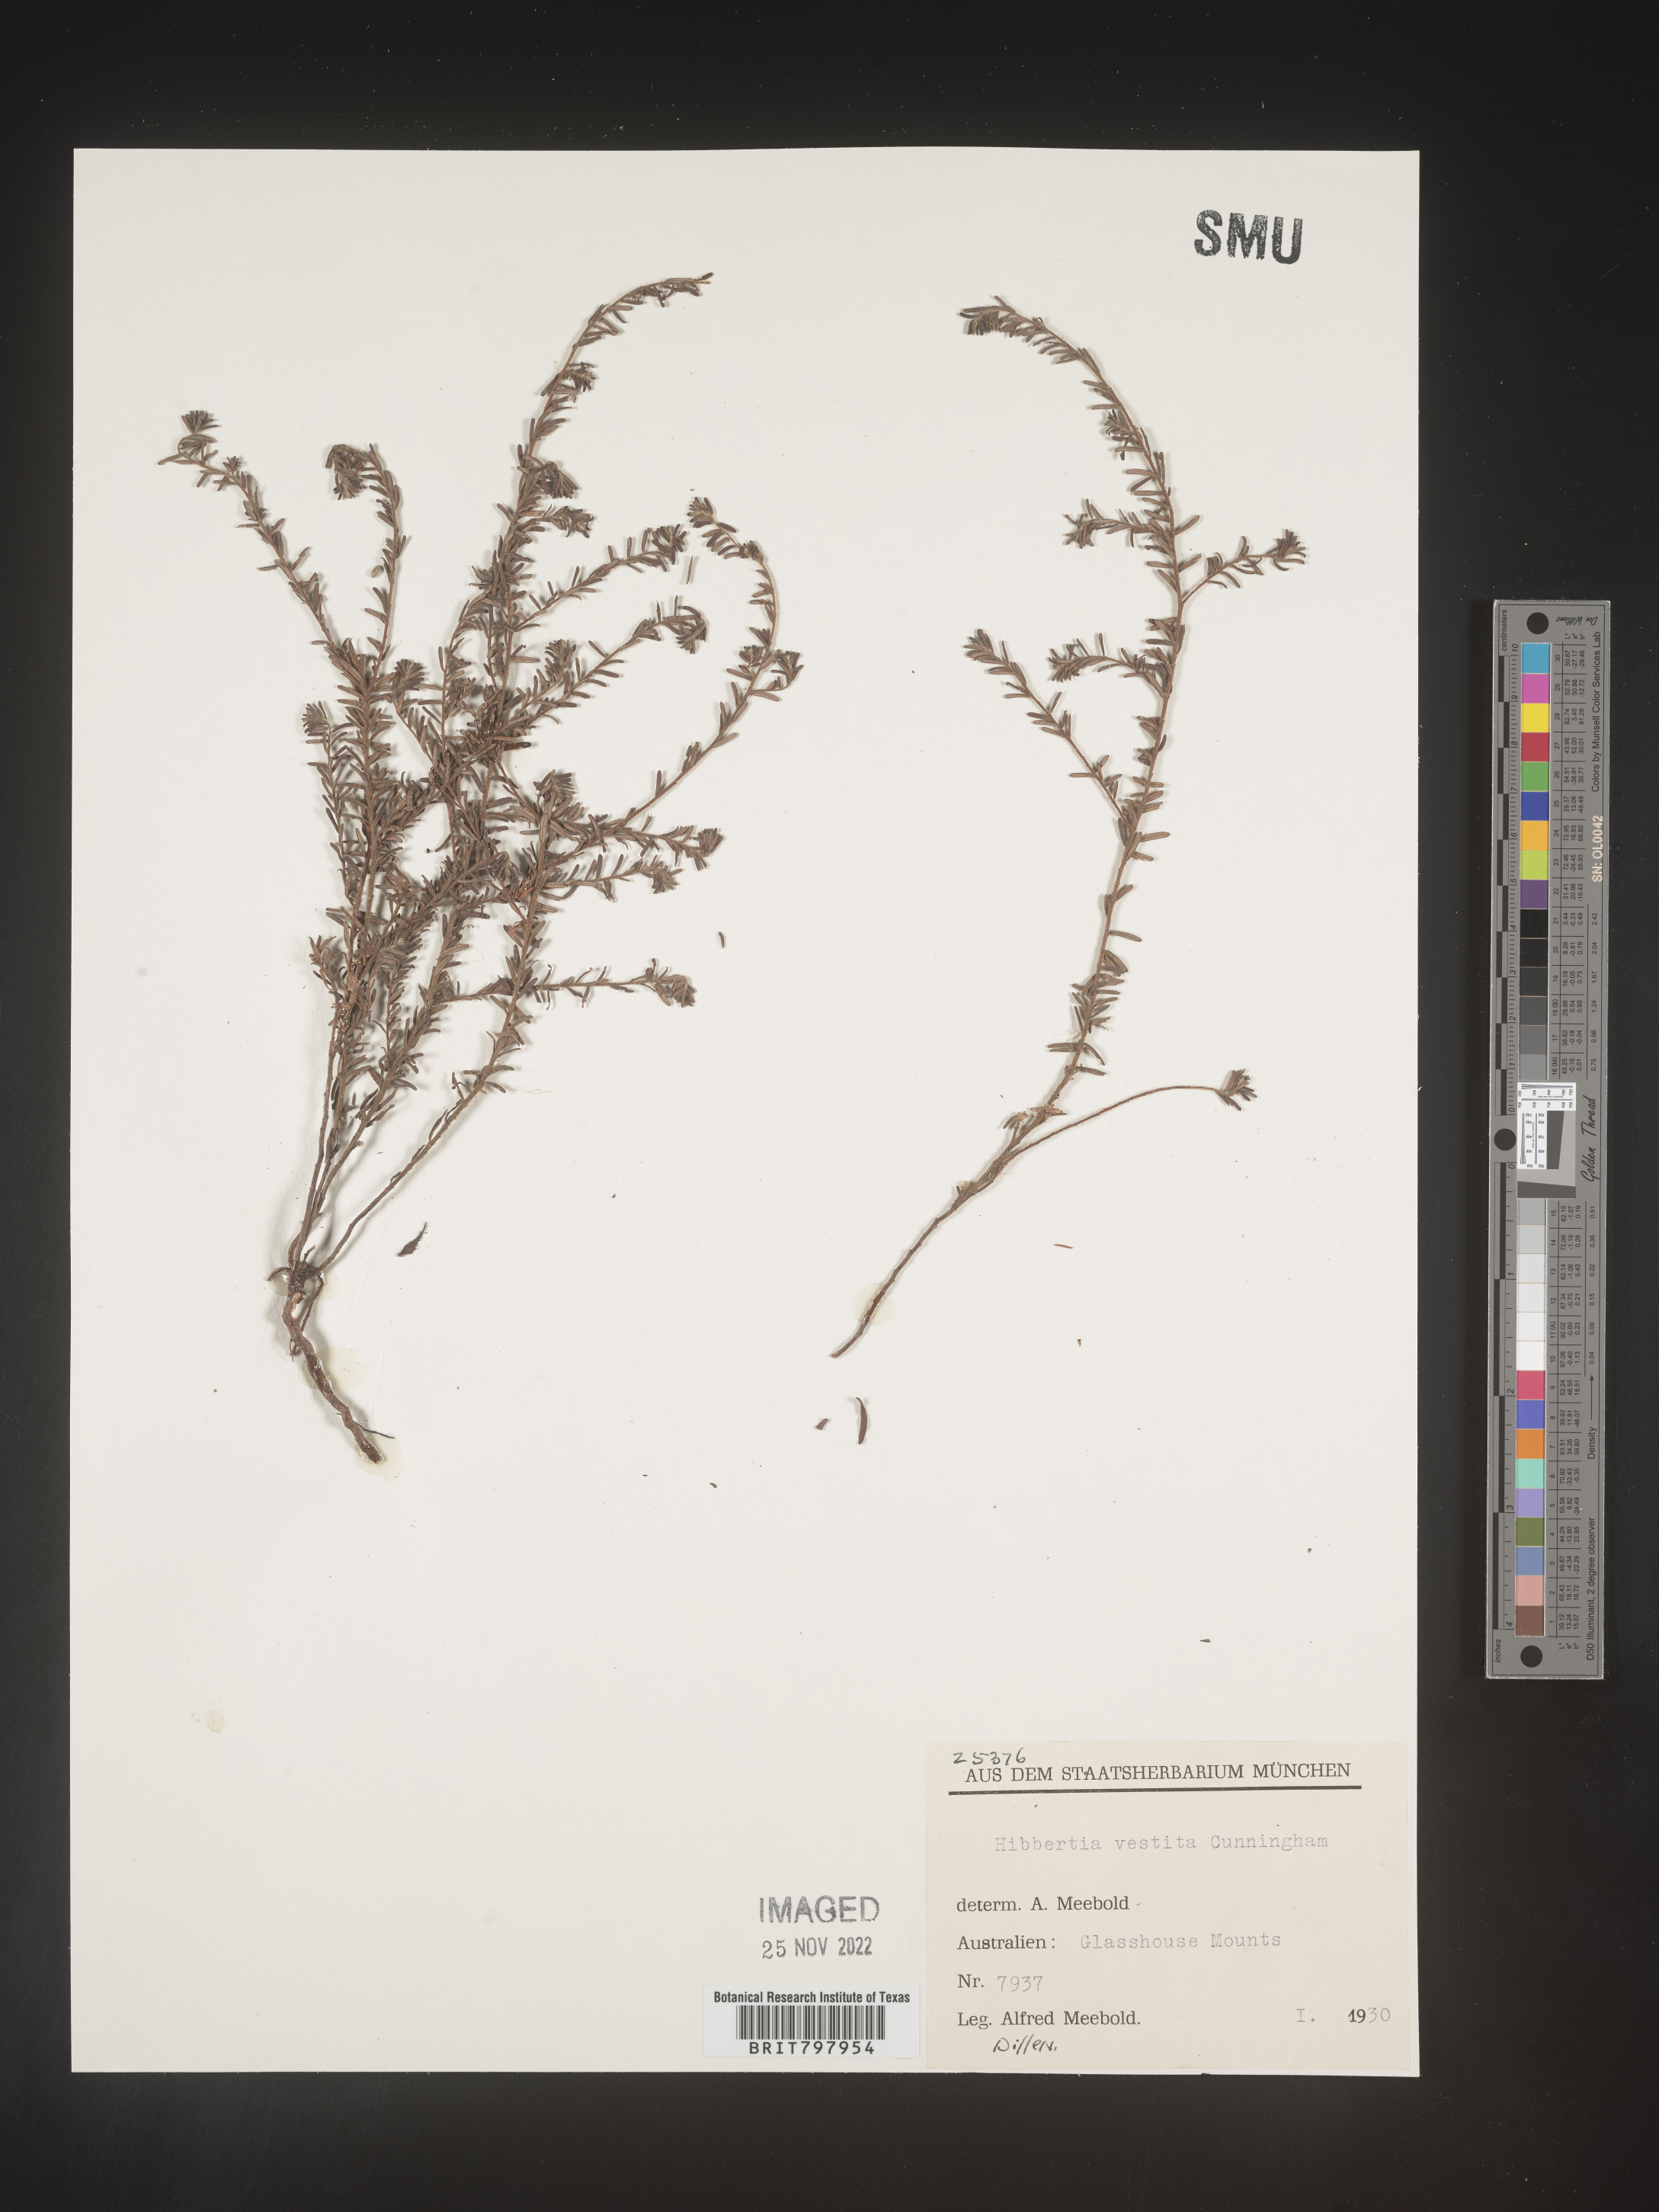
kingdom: Plantae
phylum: Tracheophyta
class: Magnoliopsida
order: Dilleniales
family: Dilleniaceae
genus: Hibbertia
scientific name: Hibbertia
